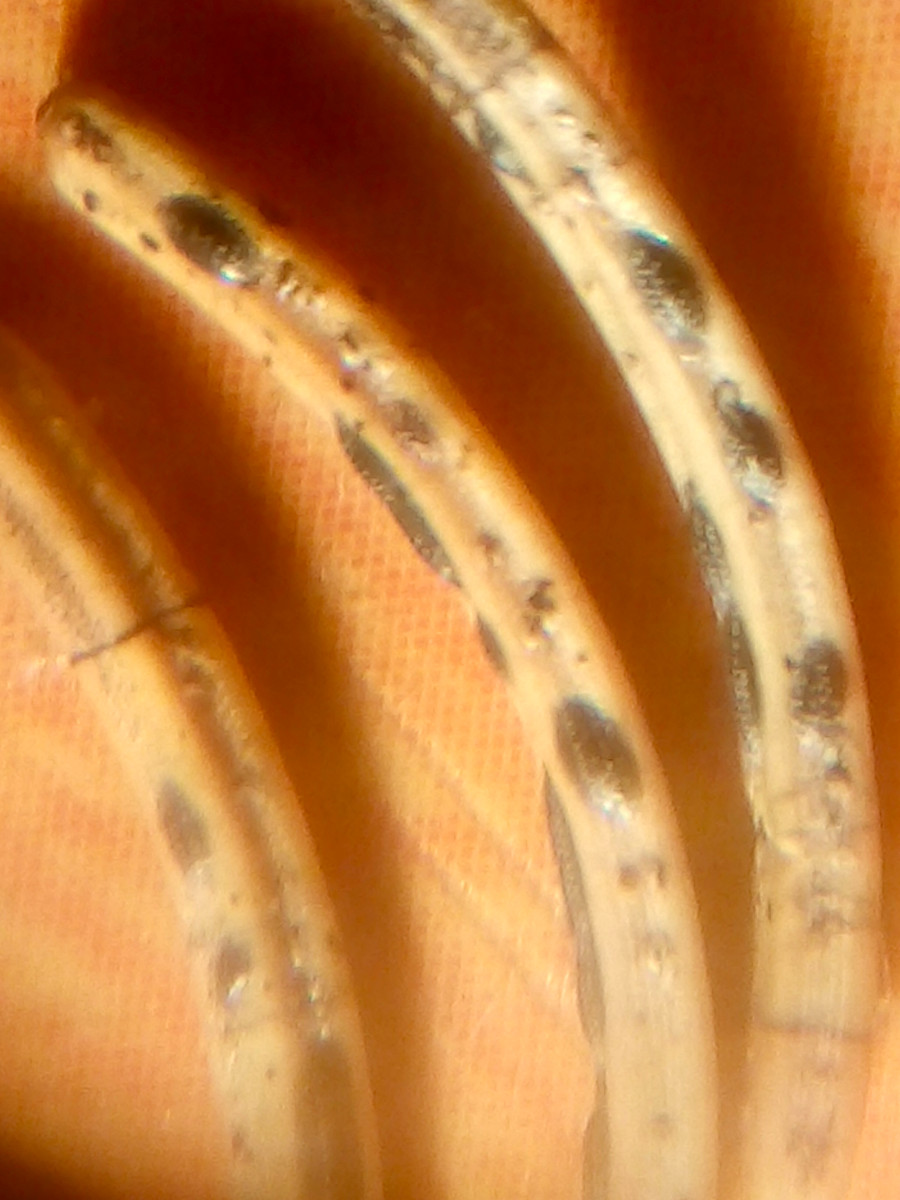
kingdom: Fungi
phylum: Ascomycota
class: Leotiomycetes
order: Rhytismatales
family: Rhytismataceae
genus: Lophodermium
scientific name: Lophodermium piceae
